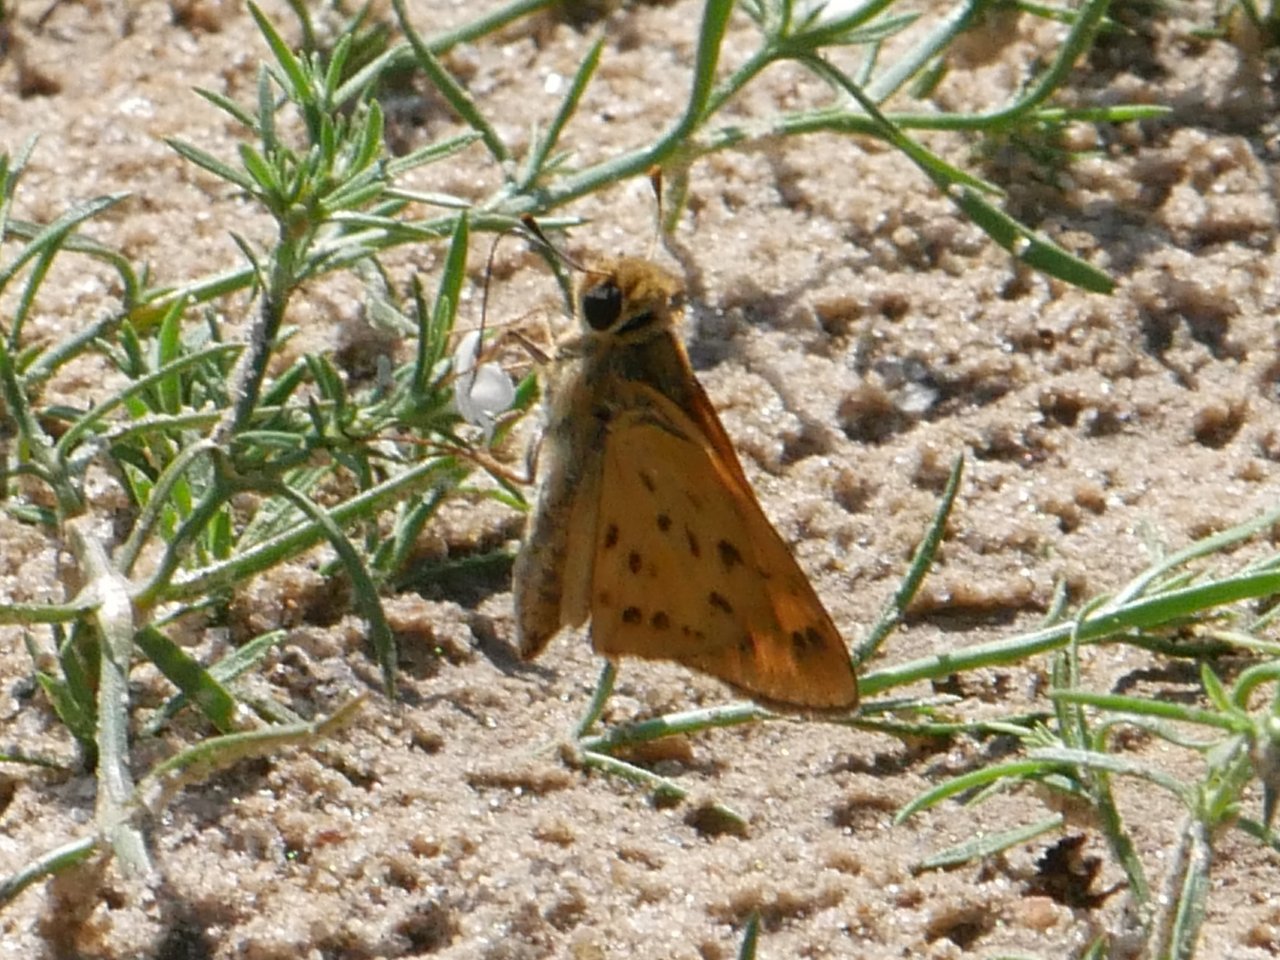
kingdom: Animalia
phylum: Arthropoda
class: Insecta
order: Lepidoptera
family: Hesperiidae
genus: Hylephila
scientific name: Hylephila phyleus
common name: Fiery Skipper
